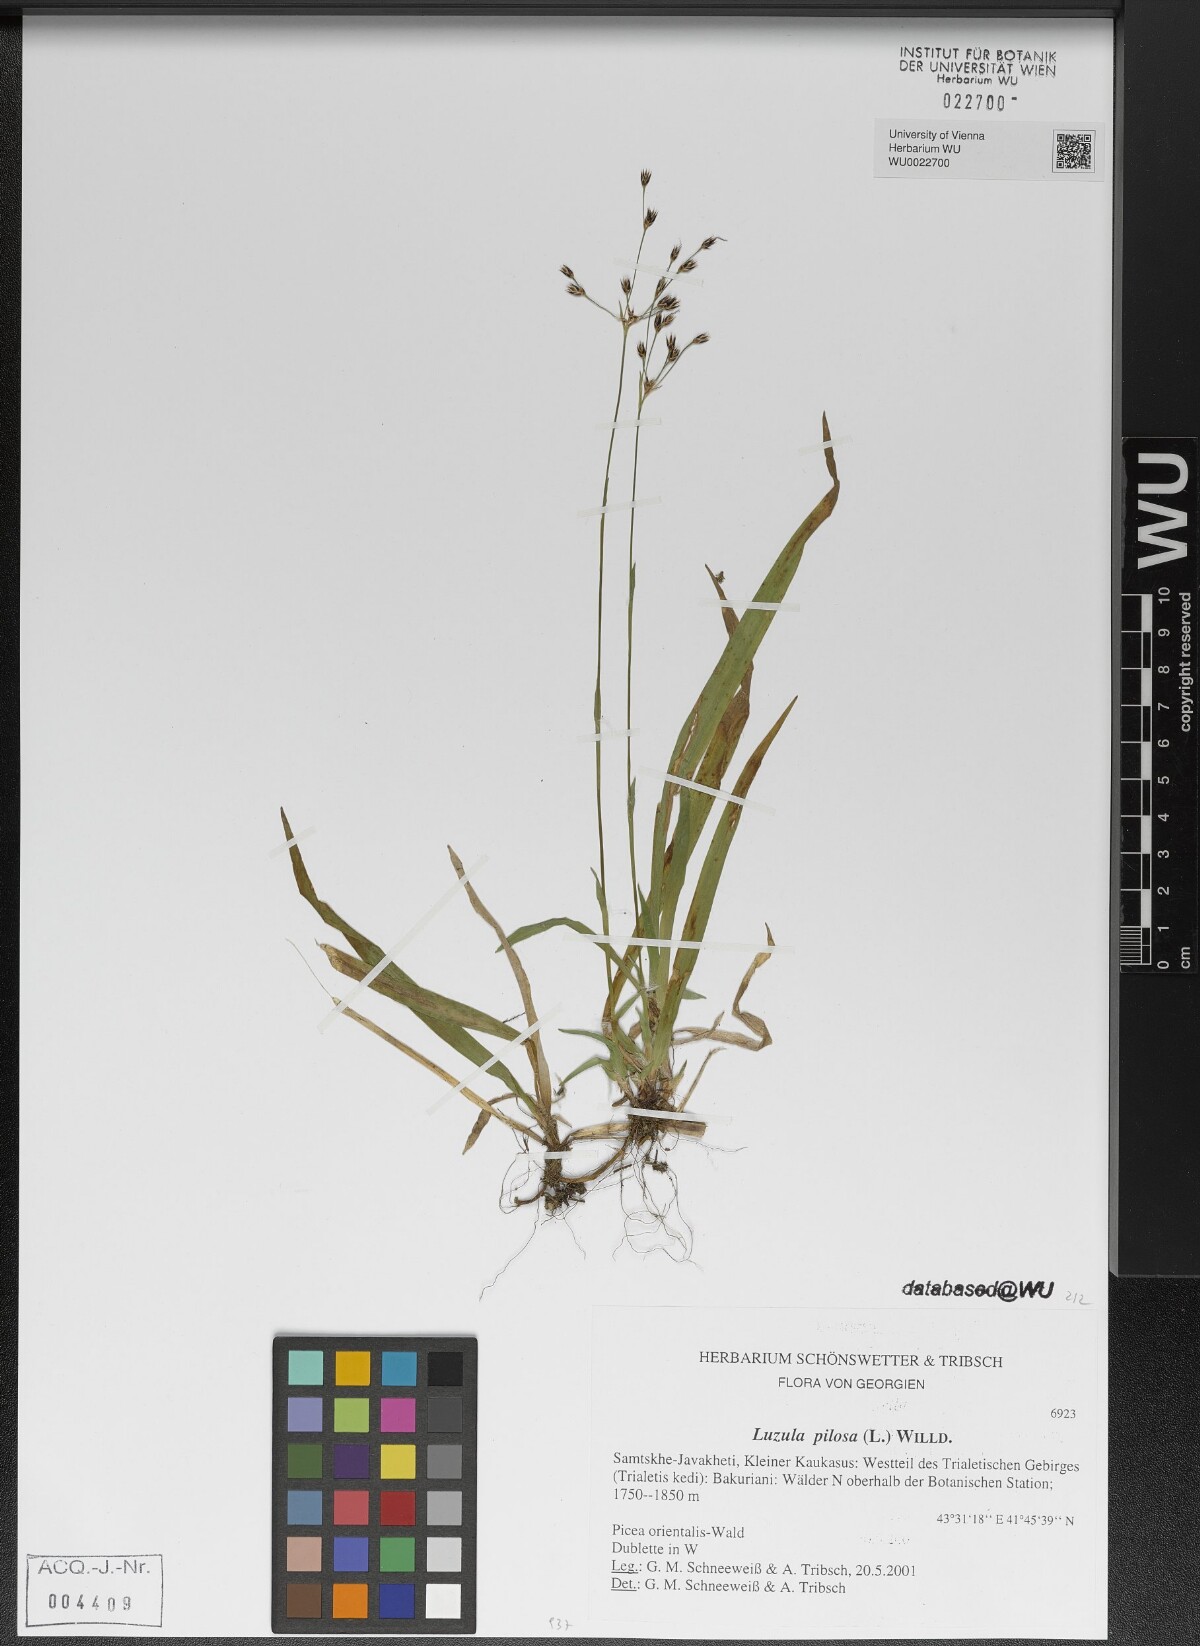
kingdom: Plantae
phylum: Tracheophyta
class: Liliopsida
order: Poales
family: Juncaceae
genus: Luzula
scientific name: Luzula pilosa
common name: Hairy wood-rush
